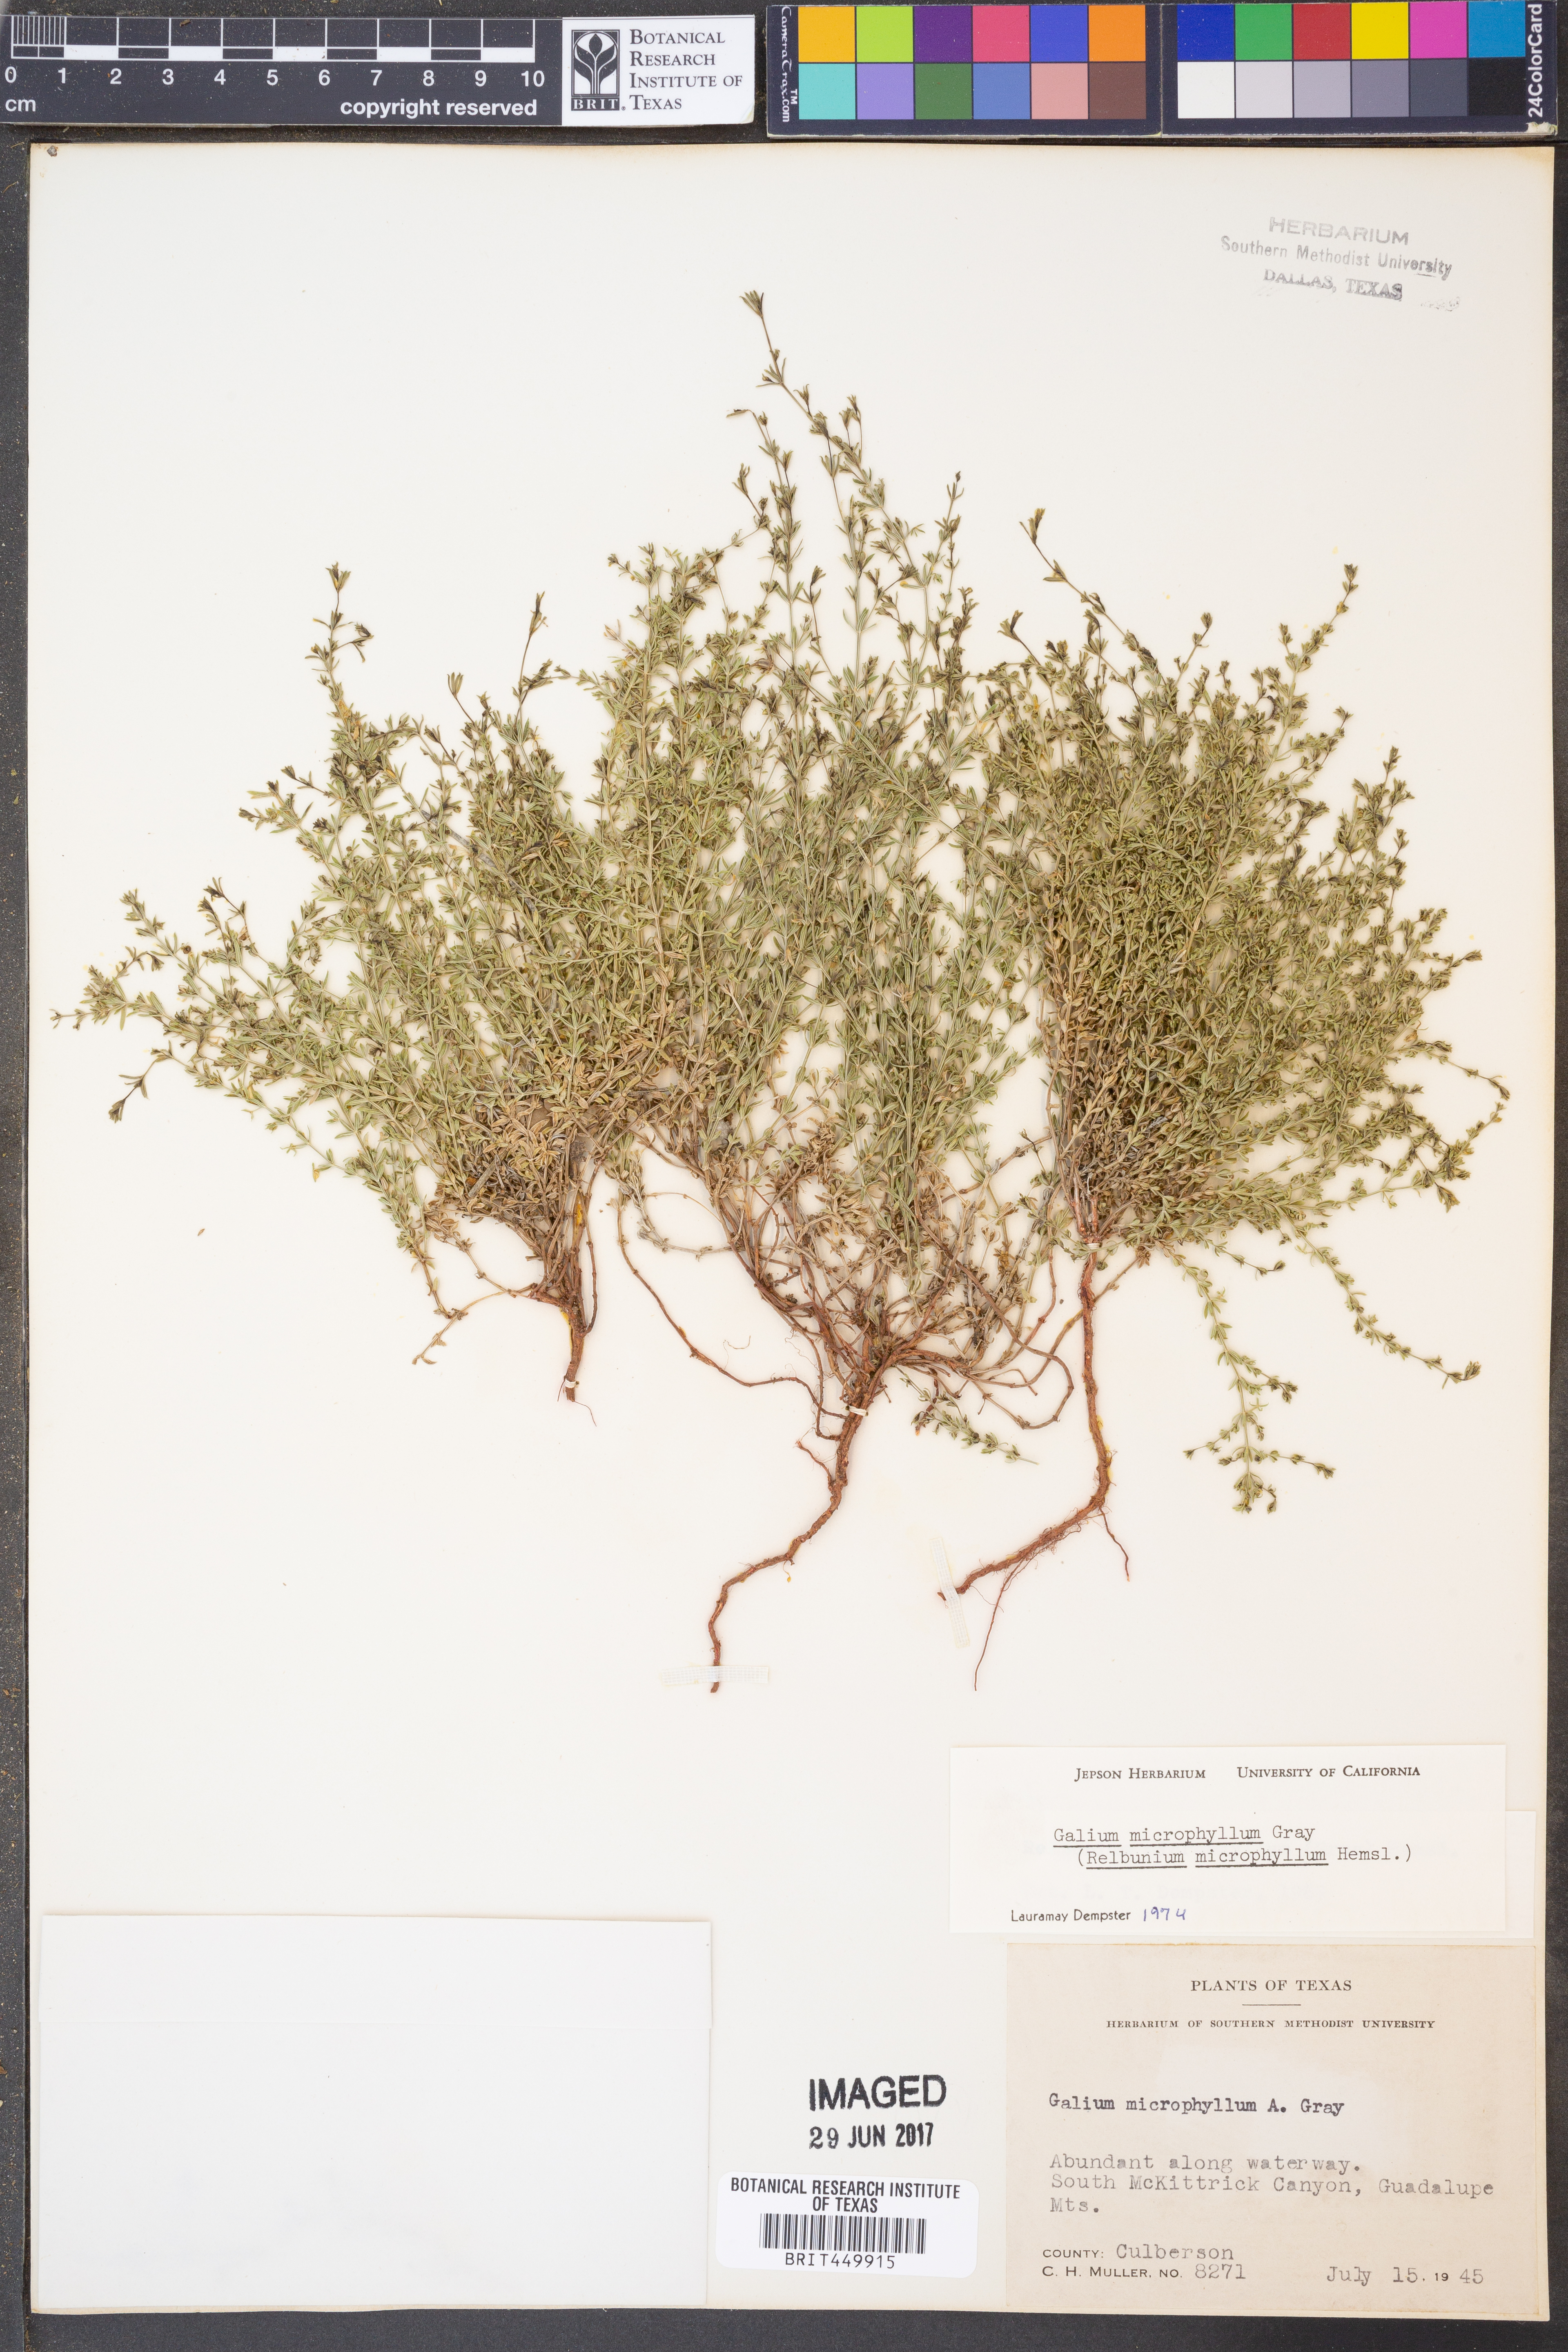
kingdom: Plantae
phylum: Tracheophyta
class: Magnoliopsida
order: Gentianales
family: Rubiaceae
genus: Galium
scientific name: Galium microphyllum
